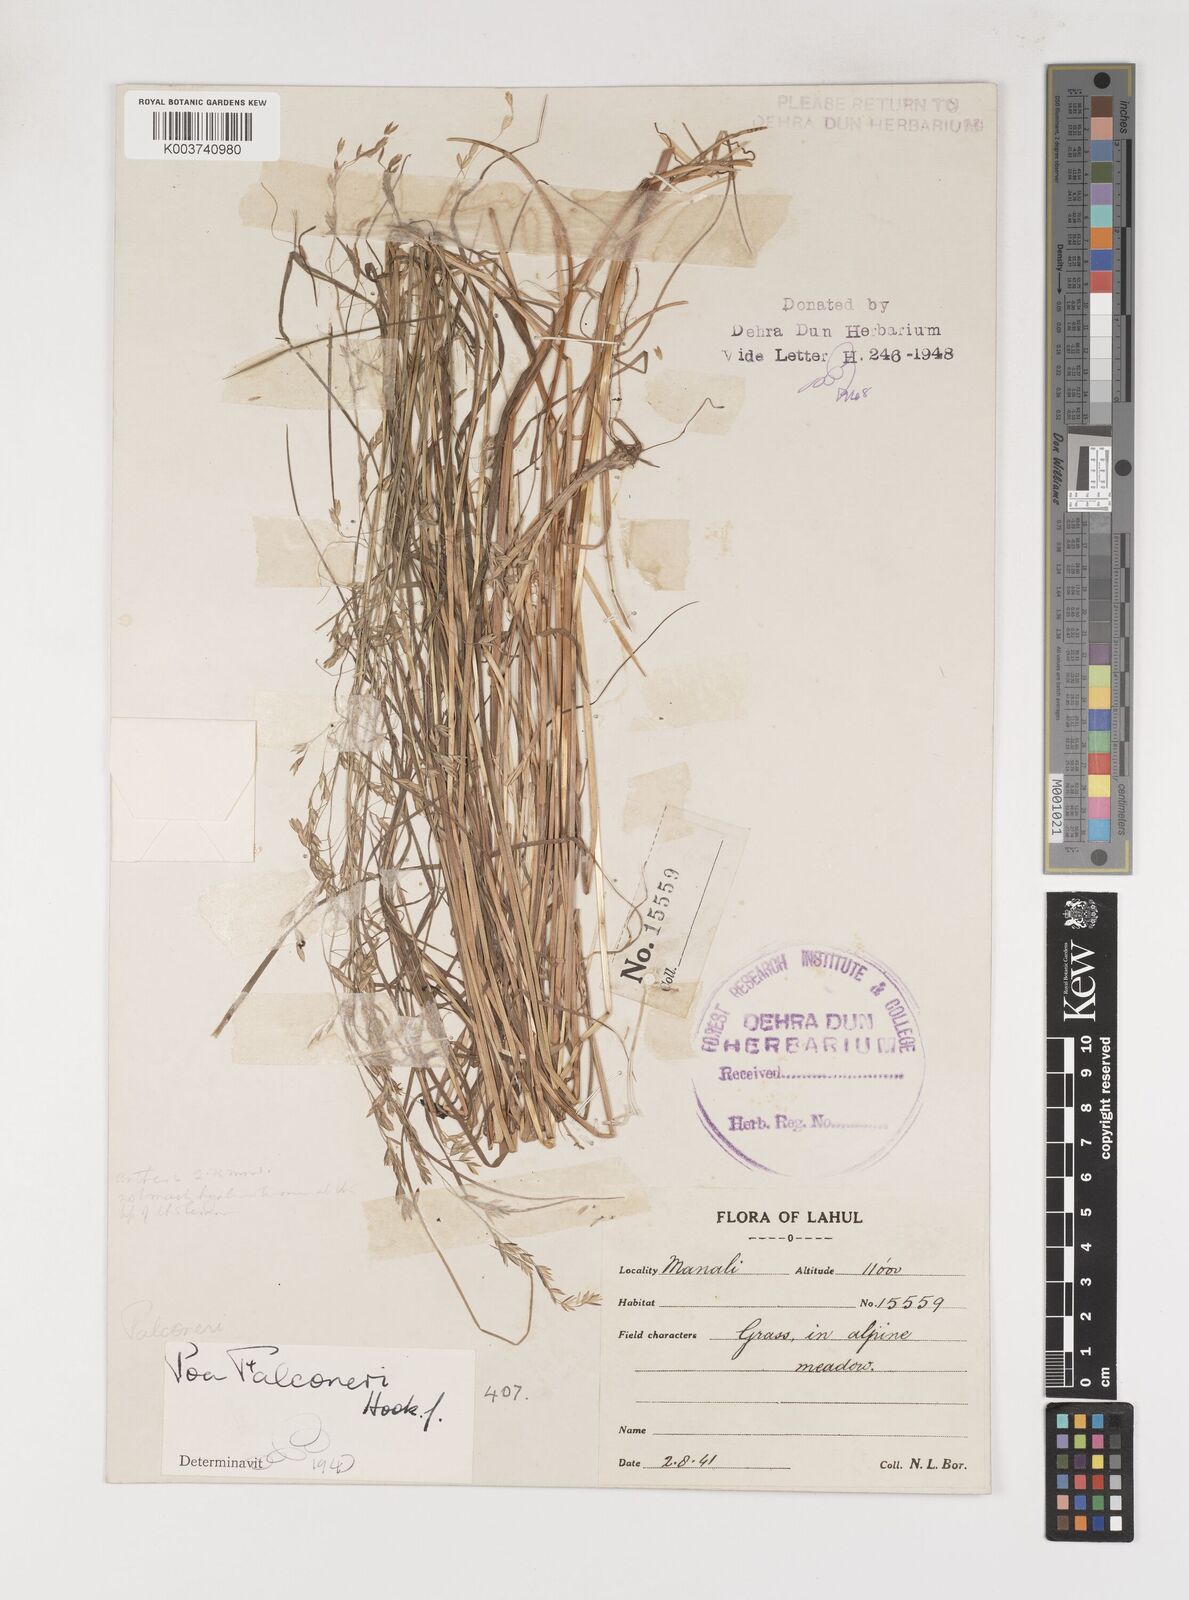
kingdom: Plantae
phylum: Tracheophyta
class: Liliopsida
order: Poales
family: Poaceae
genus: Poa
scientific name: Poa falconeri
